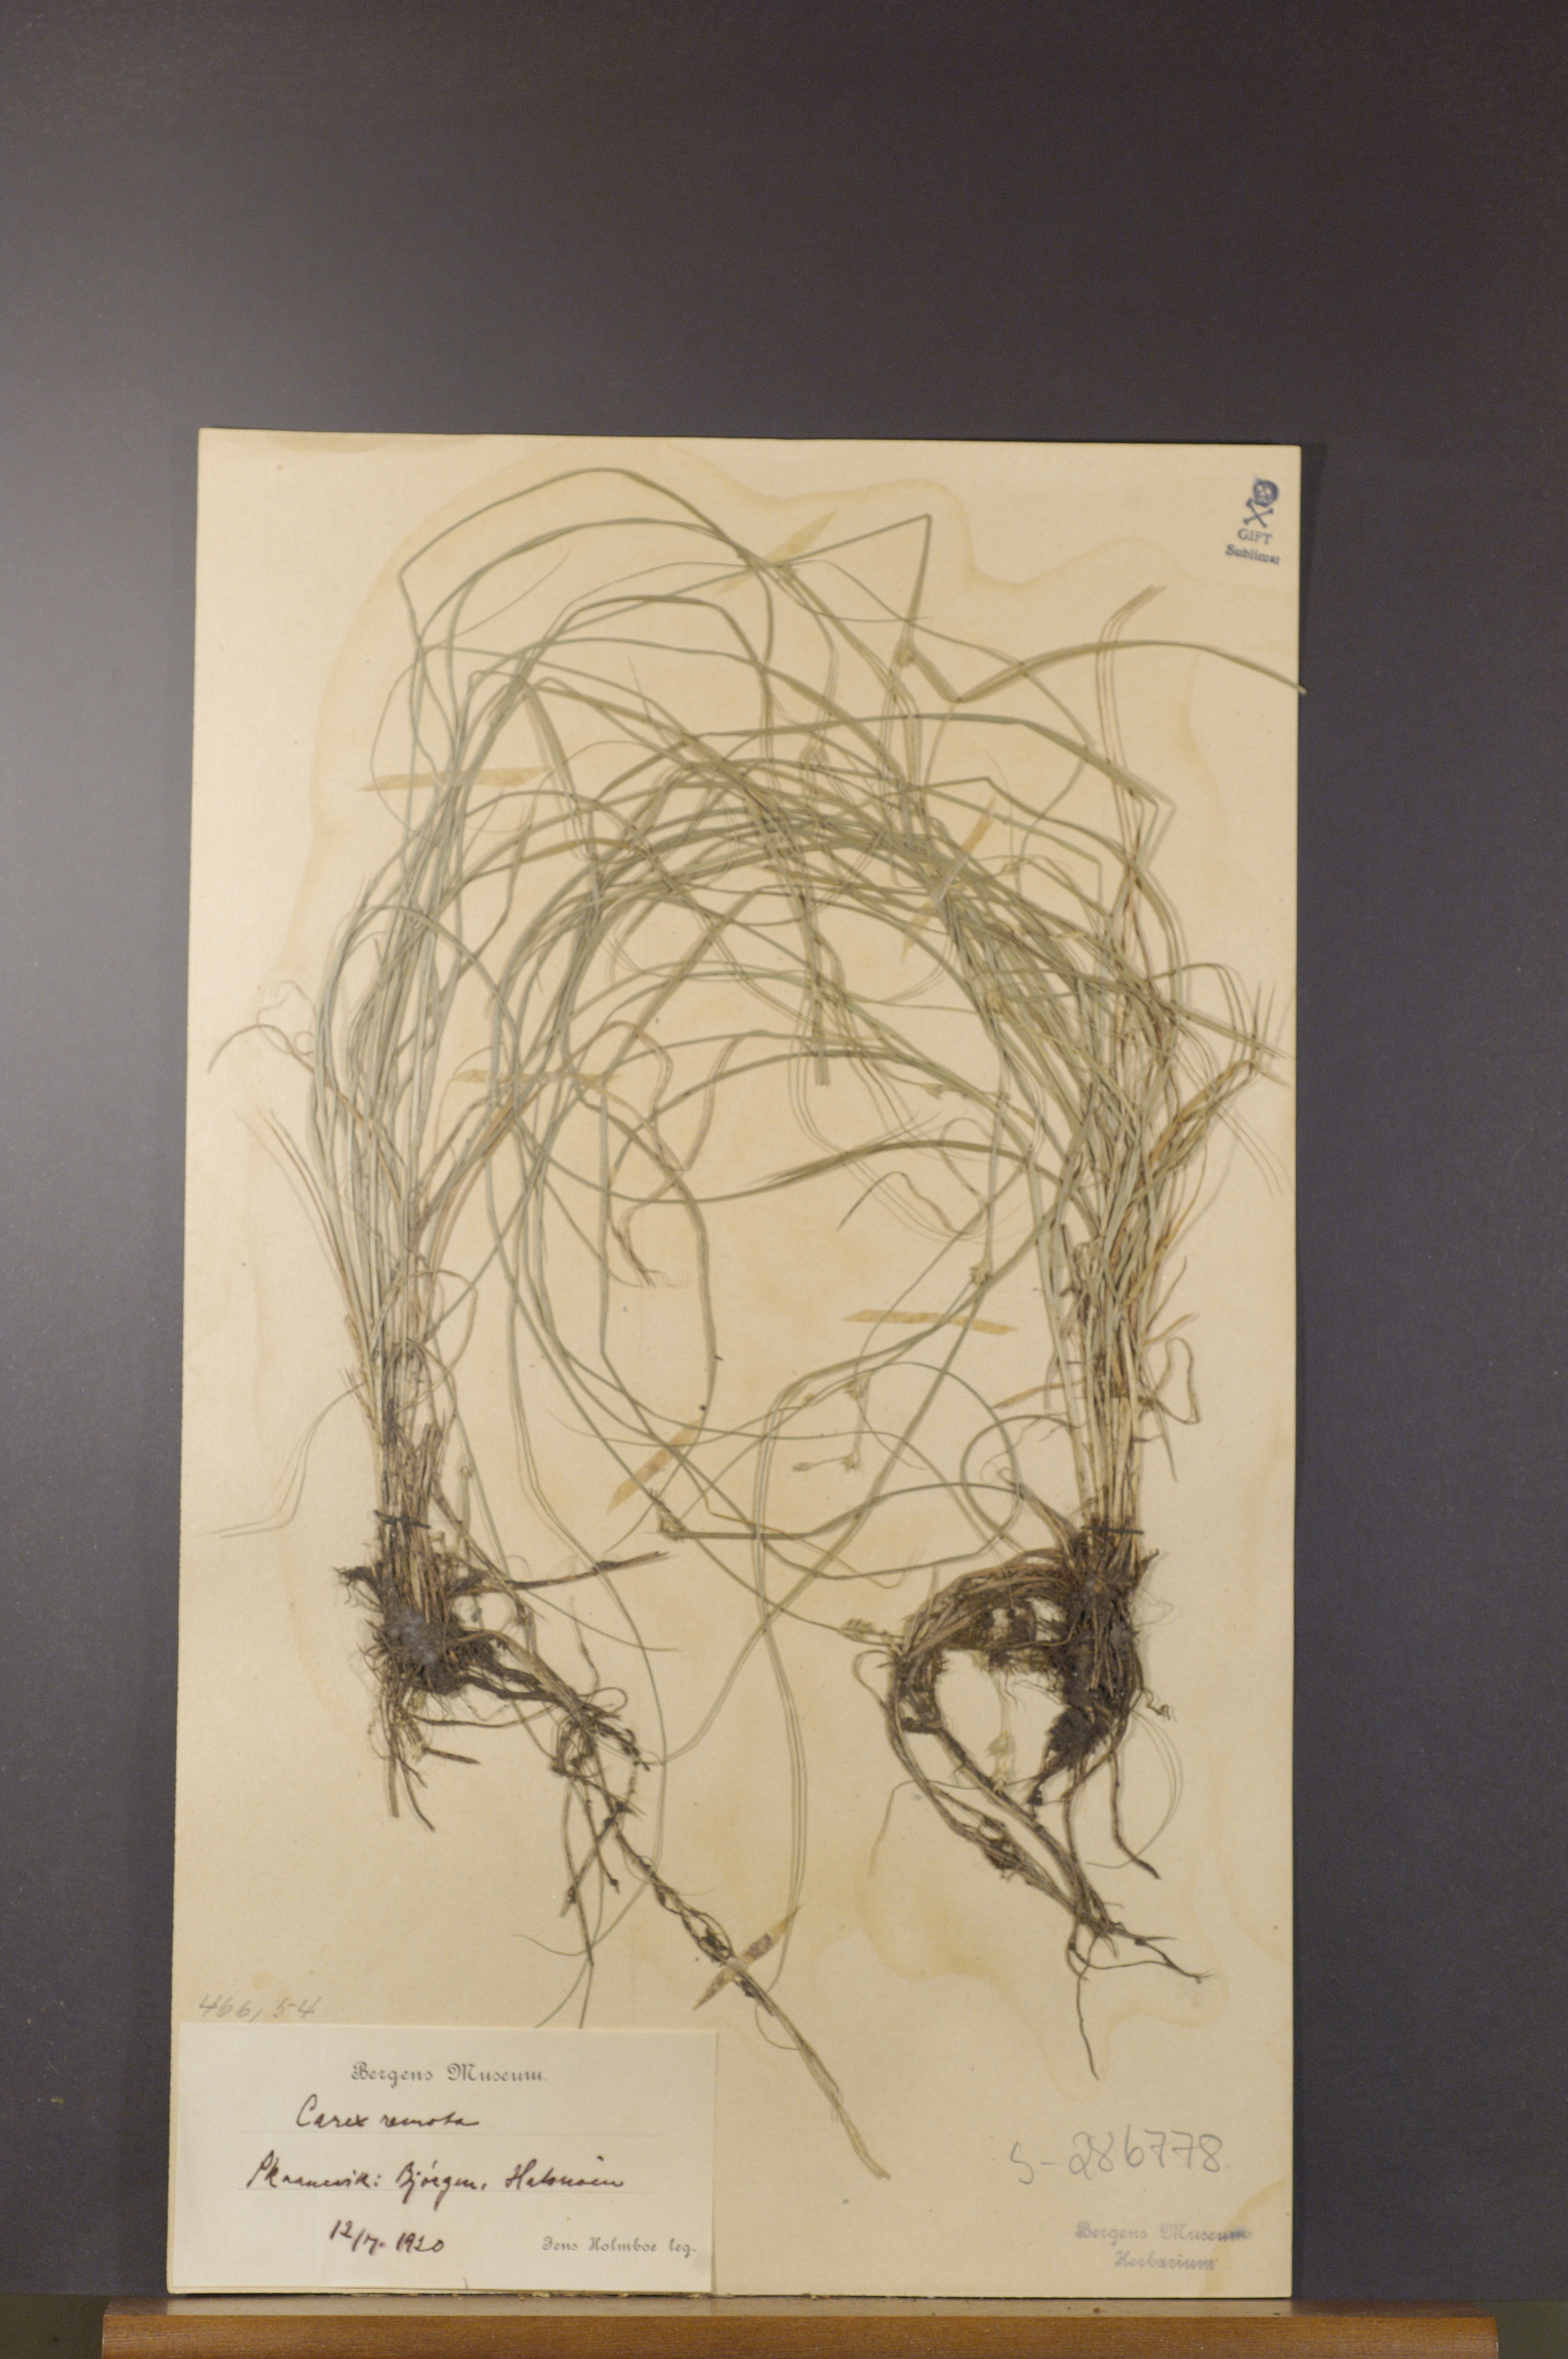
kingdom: Plantae
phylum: Tracheophyta
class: Liliopsida
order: Poales
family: Cyperaceae
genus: Carex
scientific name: Carex remota
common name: Remote sedge
